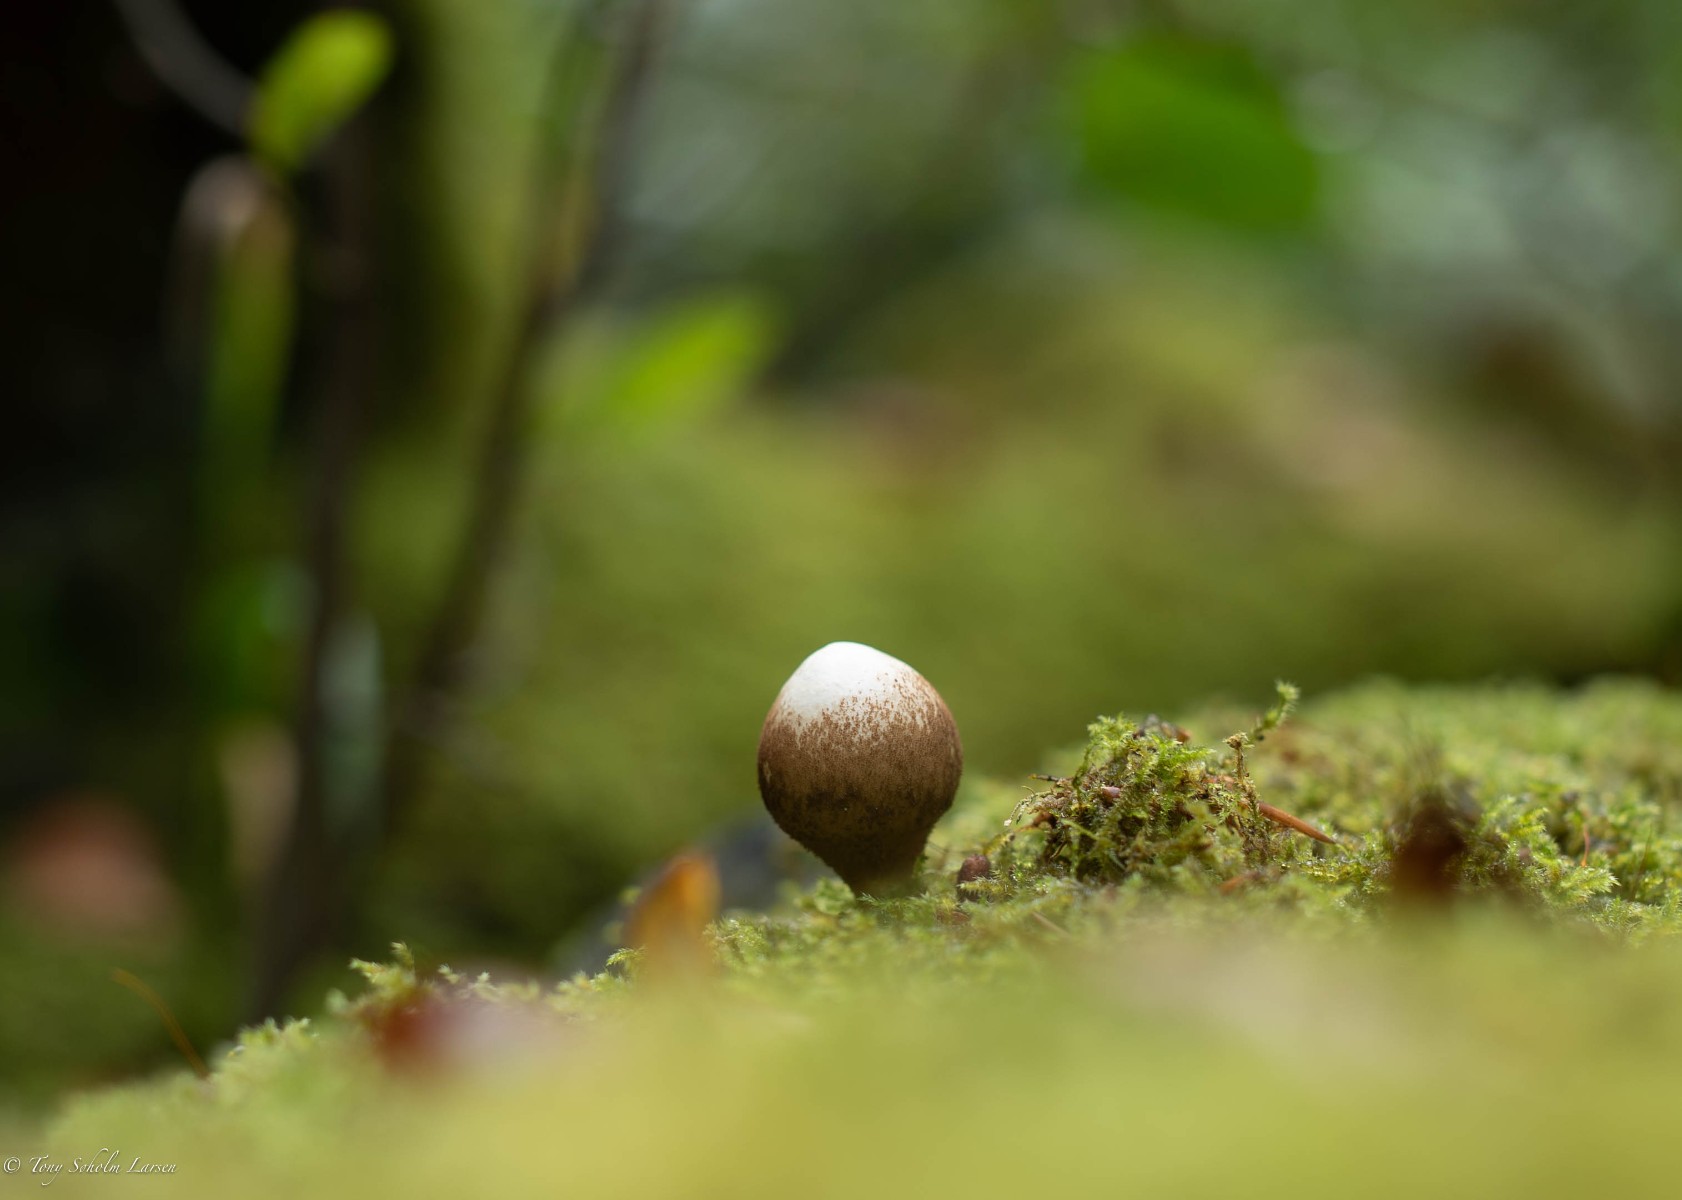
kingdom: Fungi
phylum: Basidiomycota
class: Agaricomycetes
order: Agaricales
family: Lycoperdaceae
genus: Apioperdon
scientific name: Apioperdon pyriforme
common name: pære-støvbold
